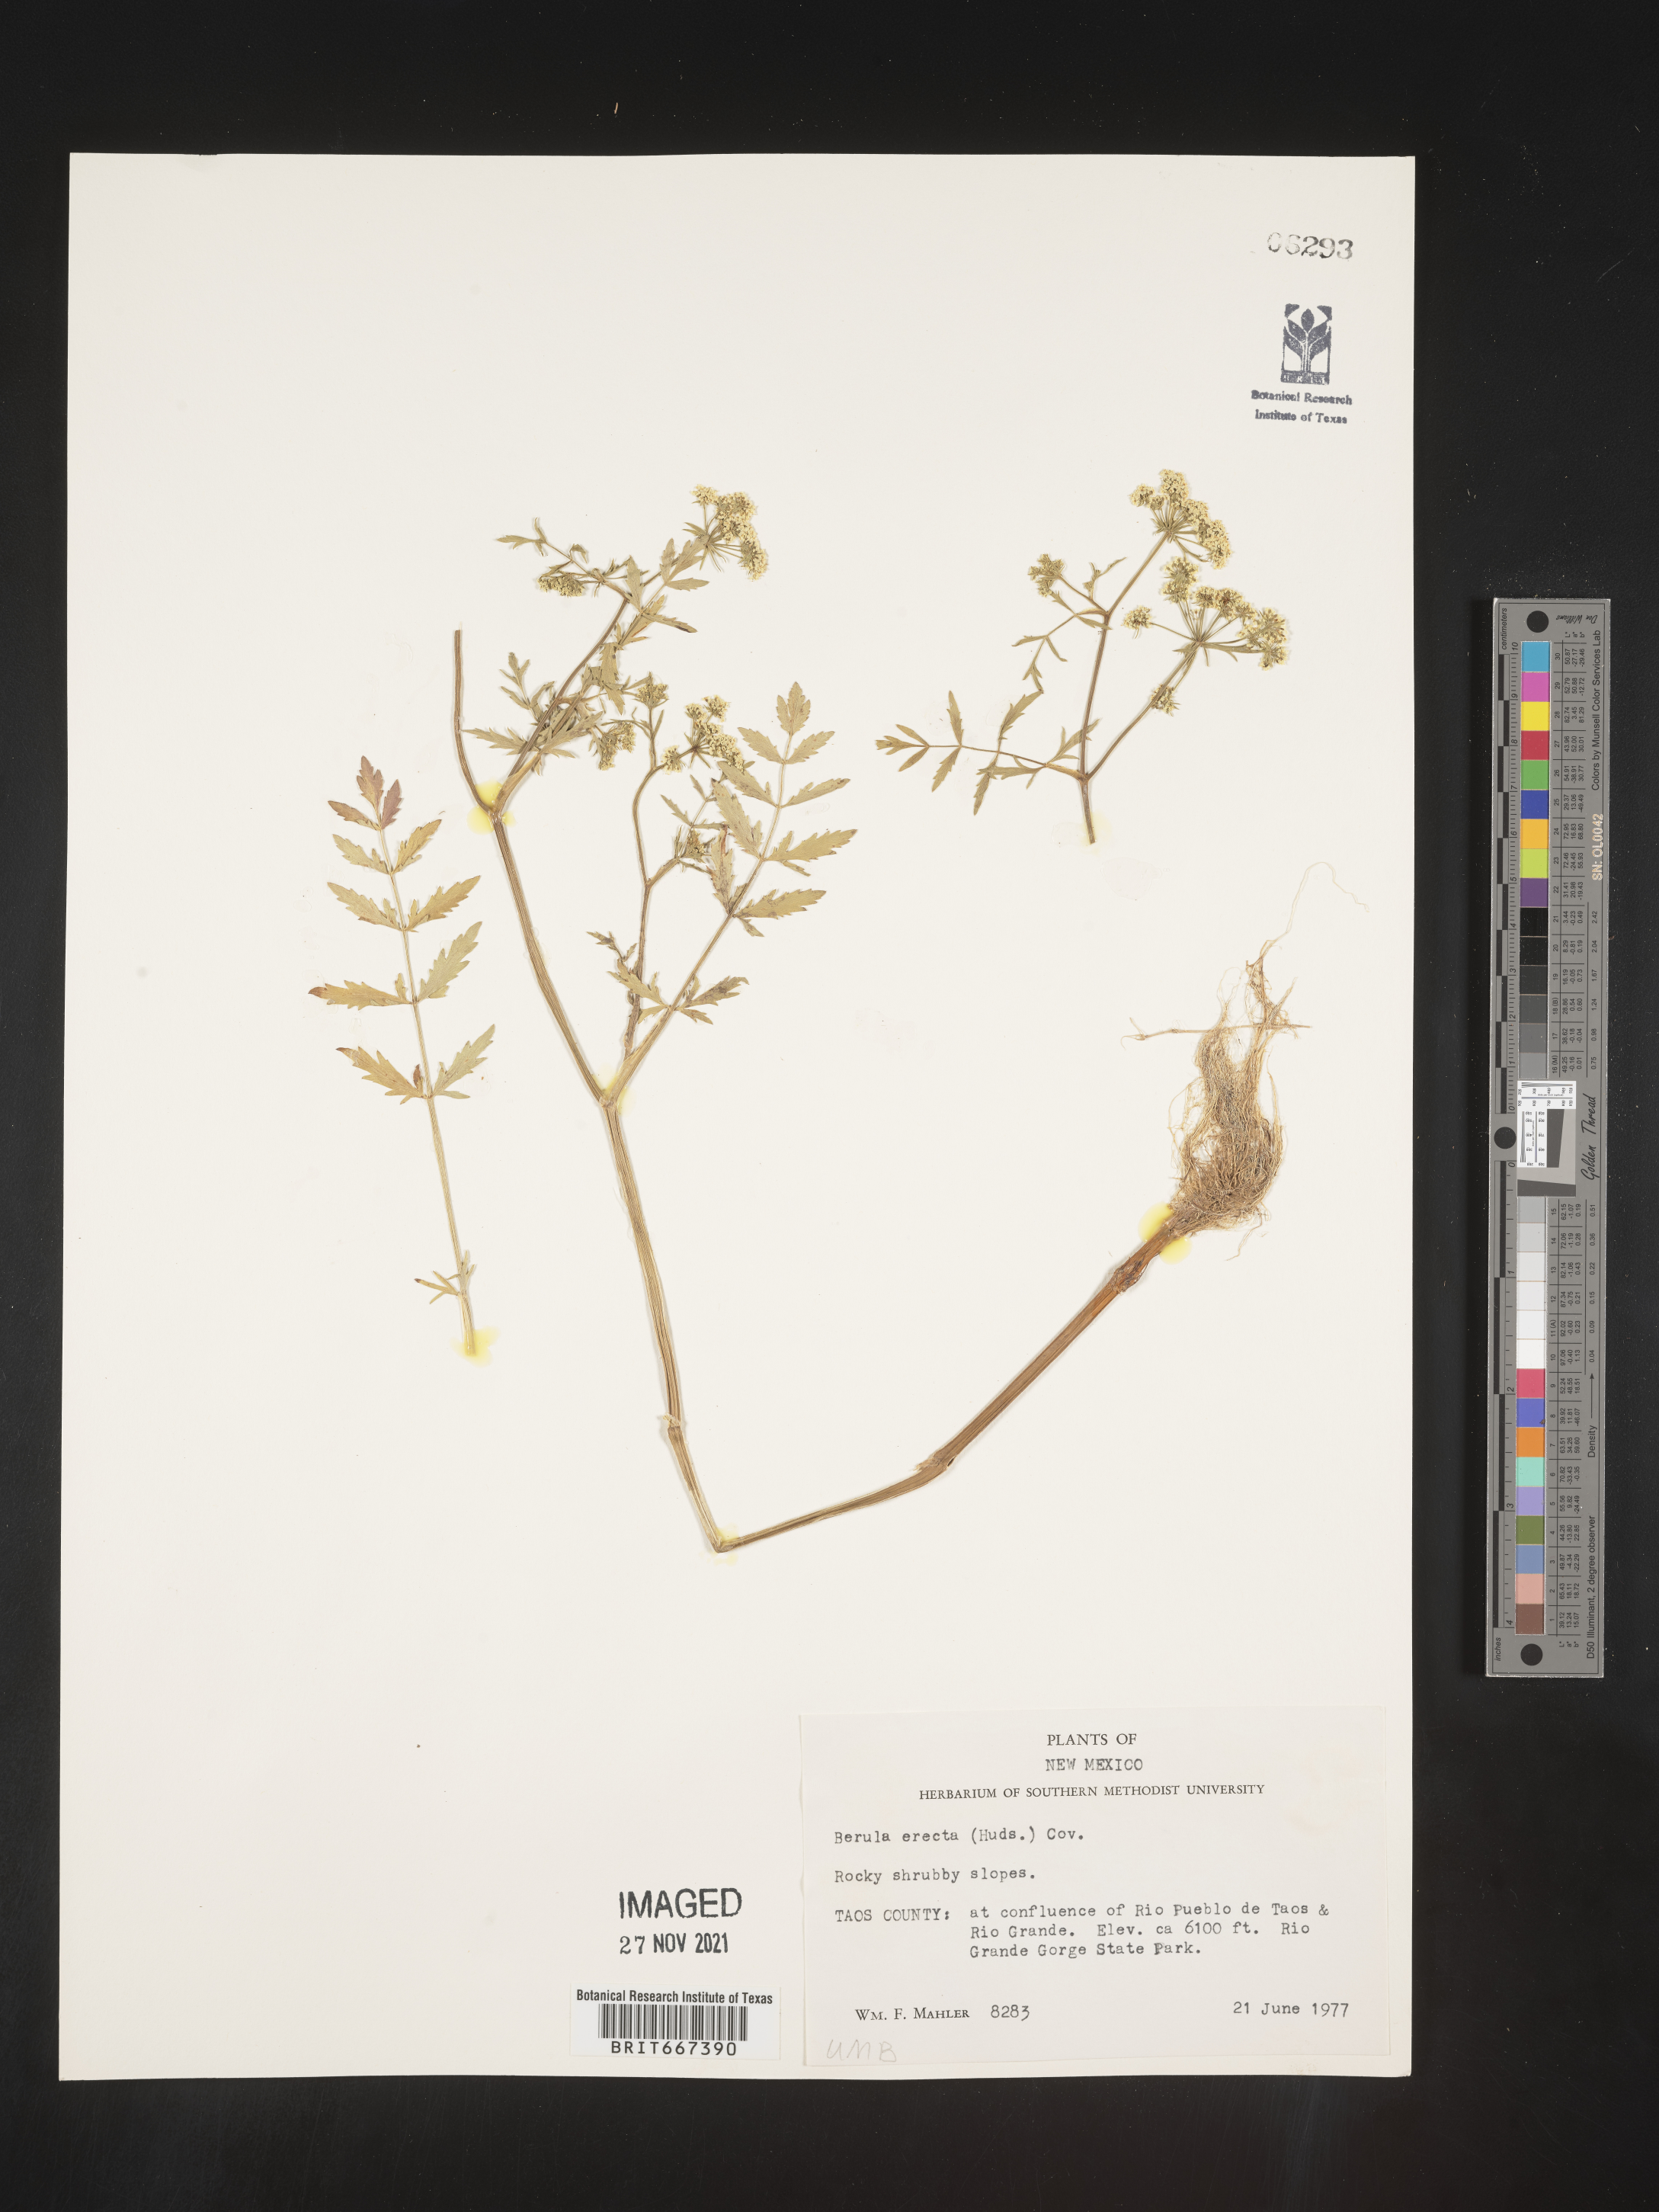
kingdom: Plantae
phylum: Tracheophyta
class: Magnoliopsida
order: Apiales
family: Apiaceae
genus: Berula
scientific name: Berula
